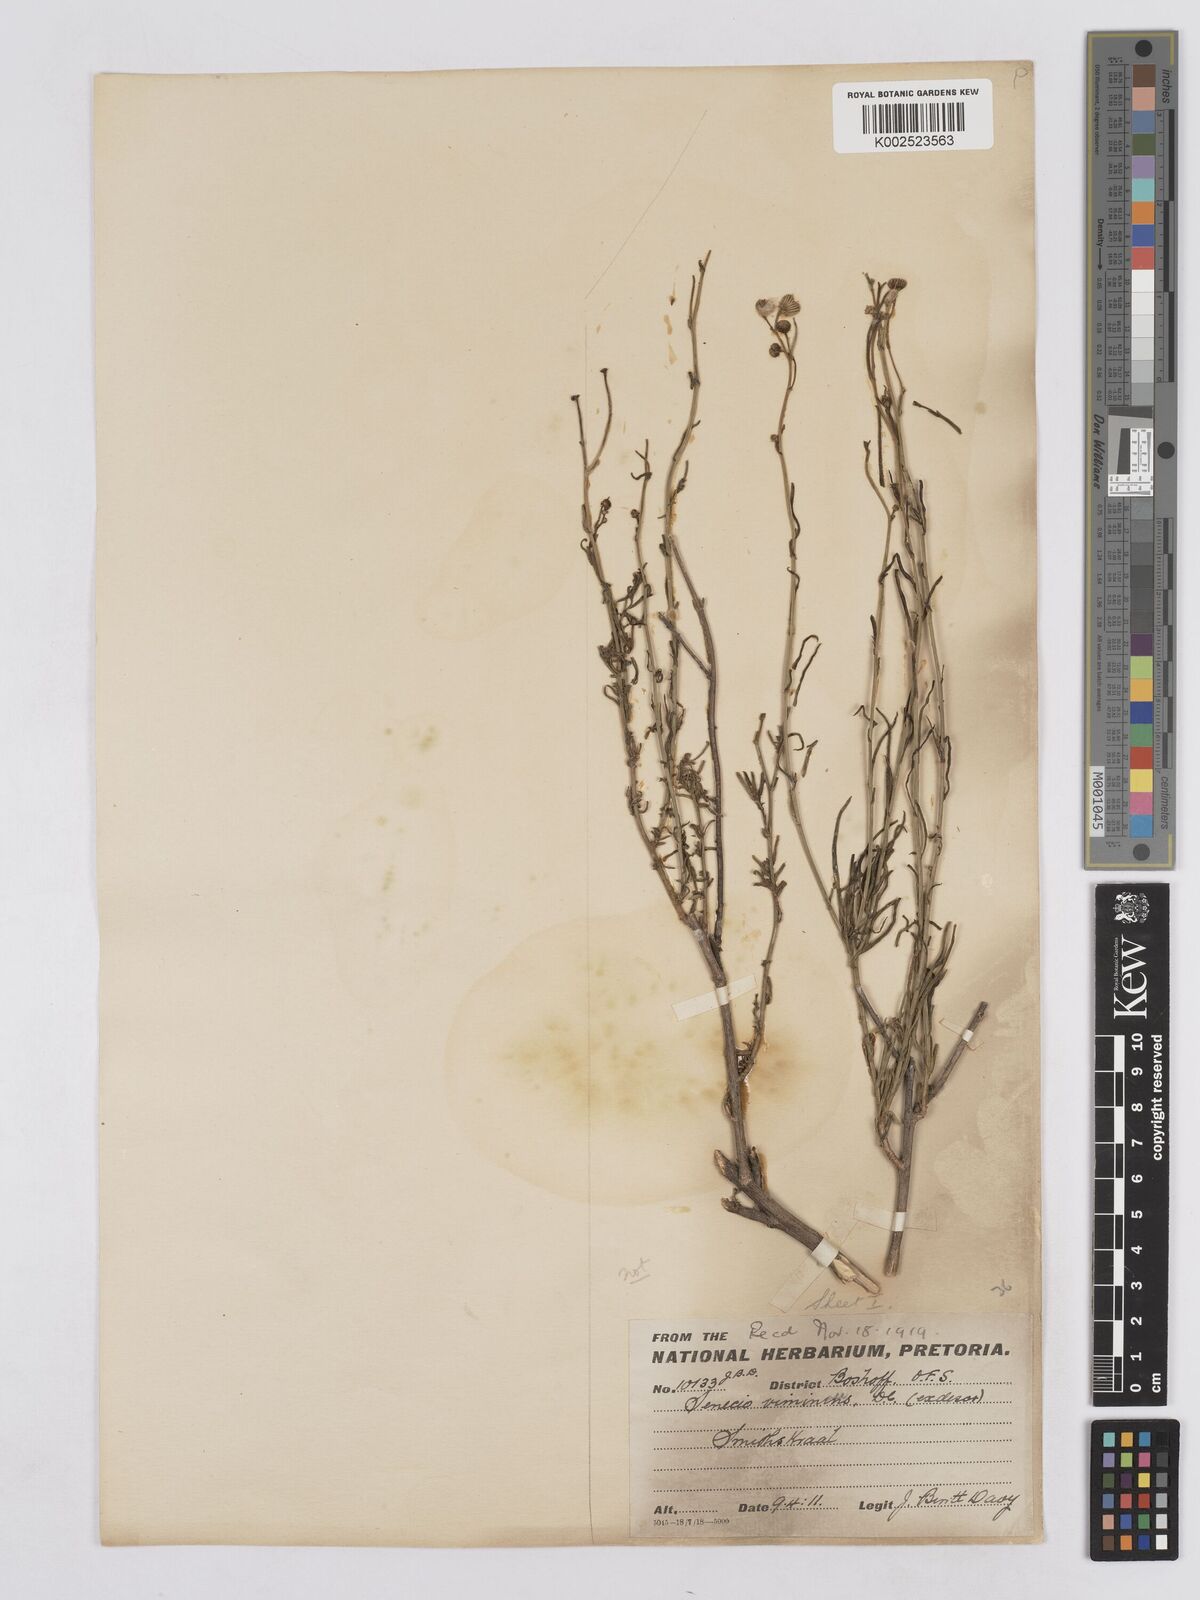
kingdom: Plantae
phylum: Tracheophyta
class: Magnoliopsida
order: Asterales
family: Asteraceae
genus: Senecio
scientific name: Senecio inaequidens
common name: Narrow-leaved ragwort
